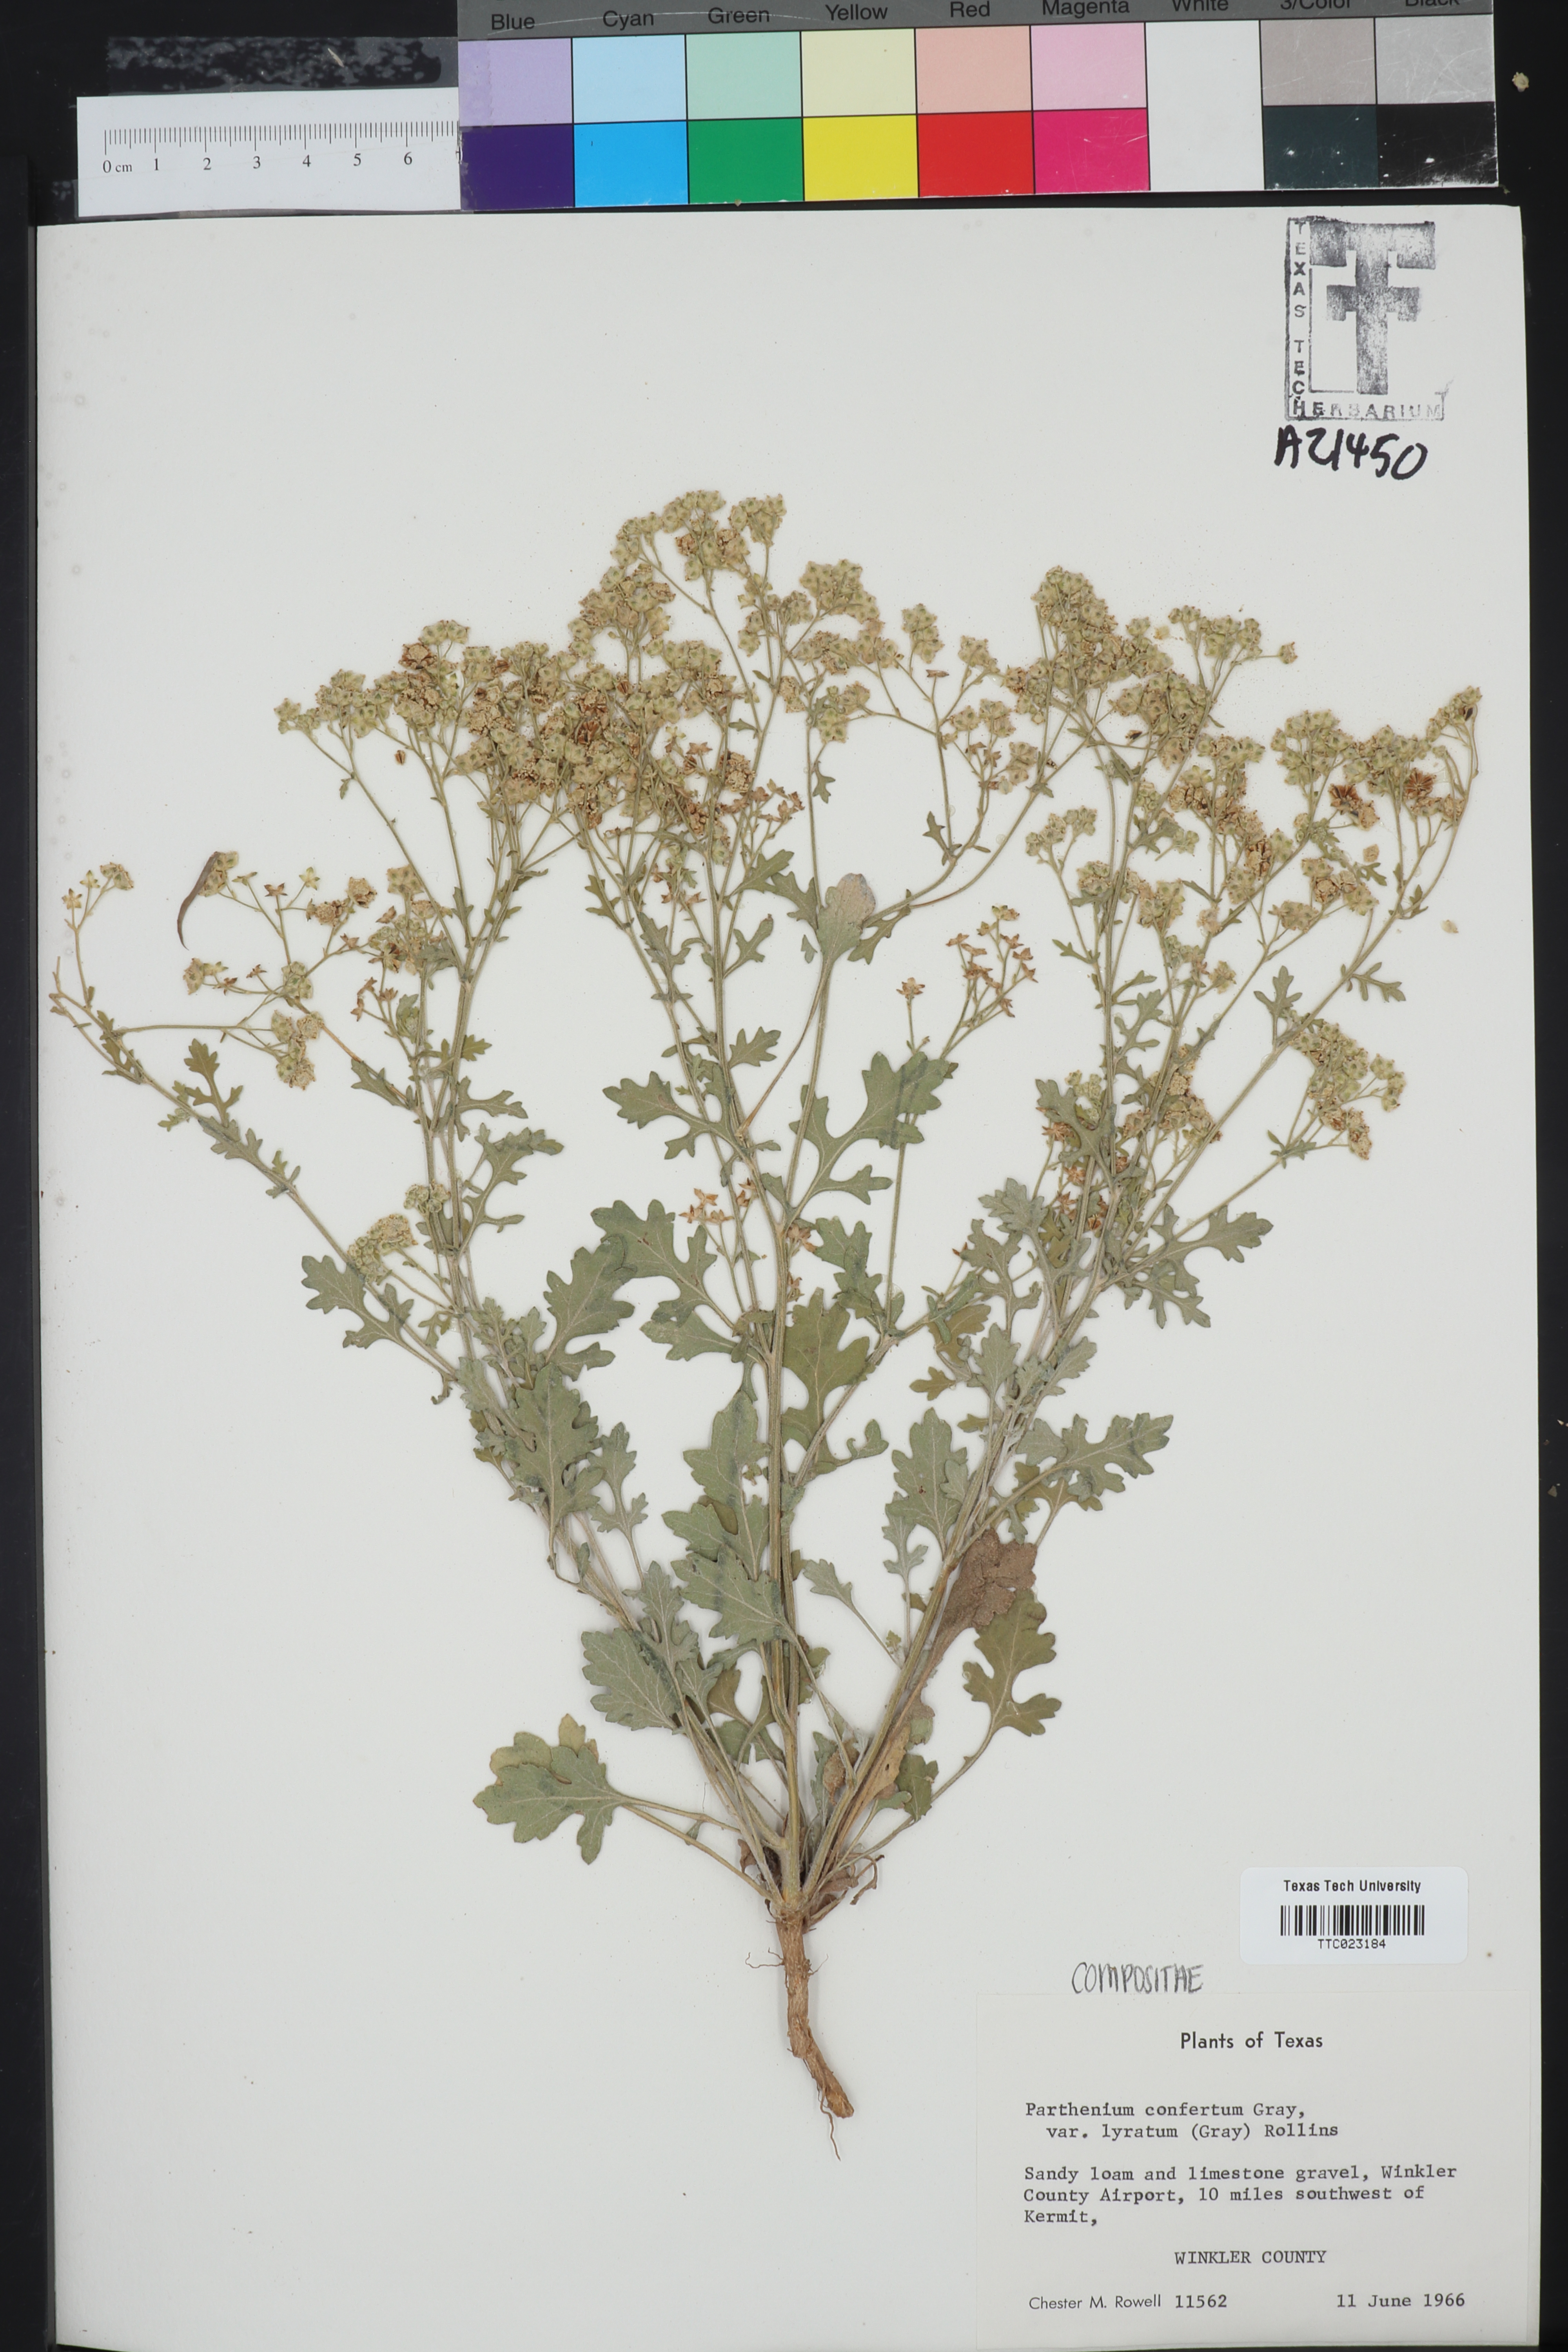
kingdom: Plantae
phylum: Tracheophyta
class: Magnoliopsida
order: Asterales
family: Asteraceae
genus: Parthenium
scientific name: Parthenium confertum
